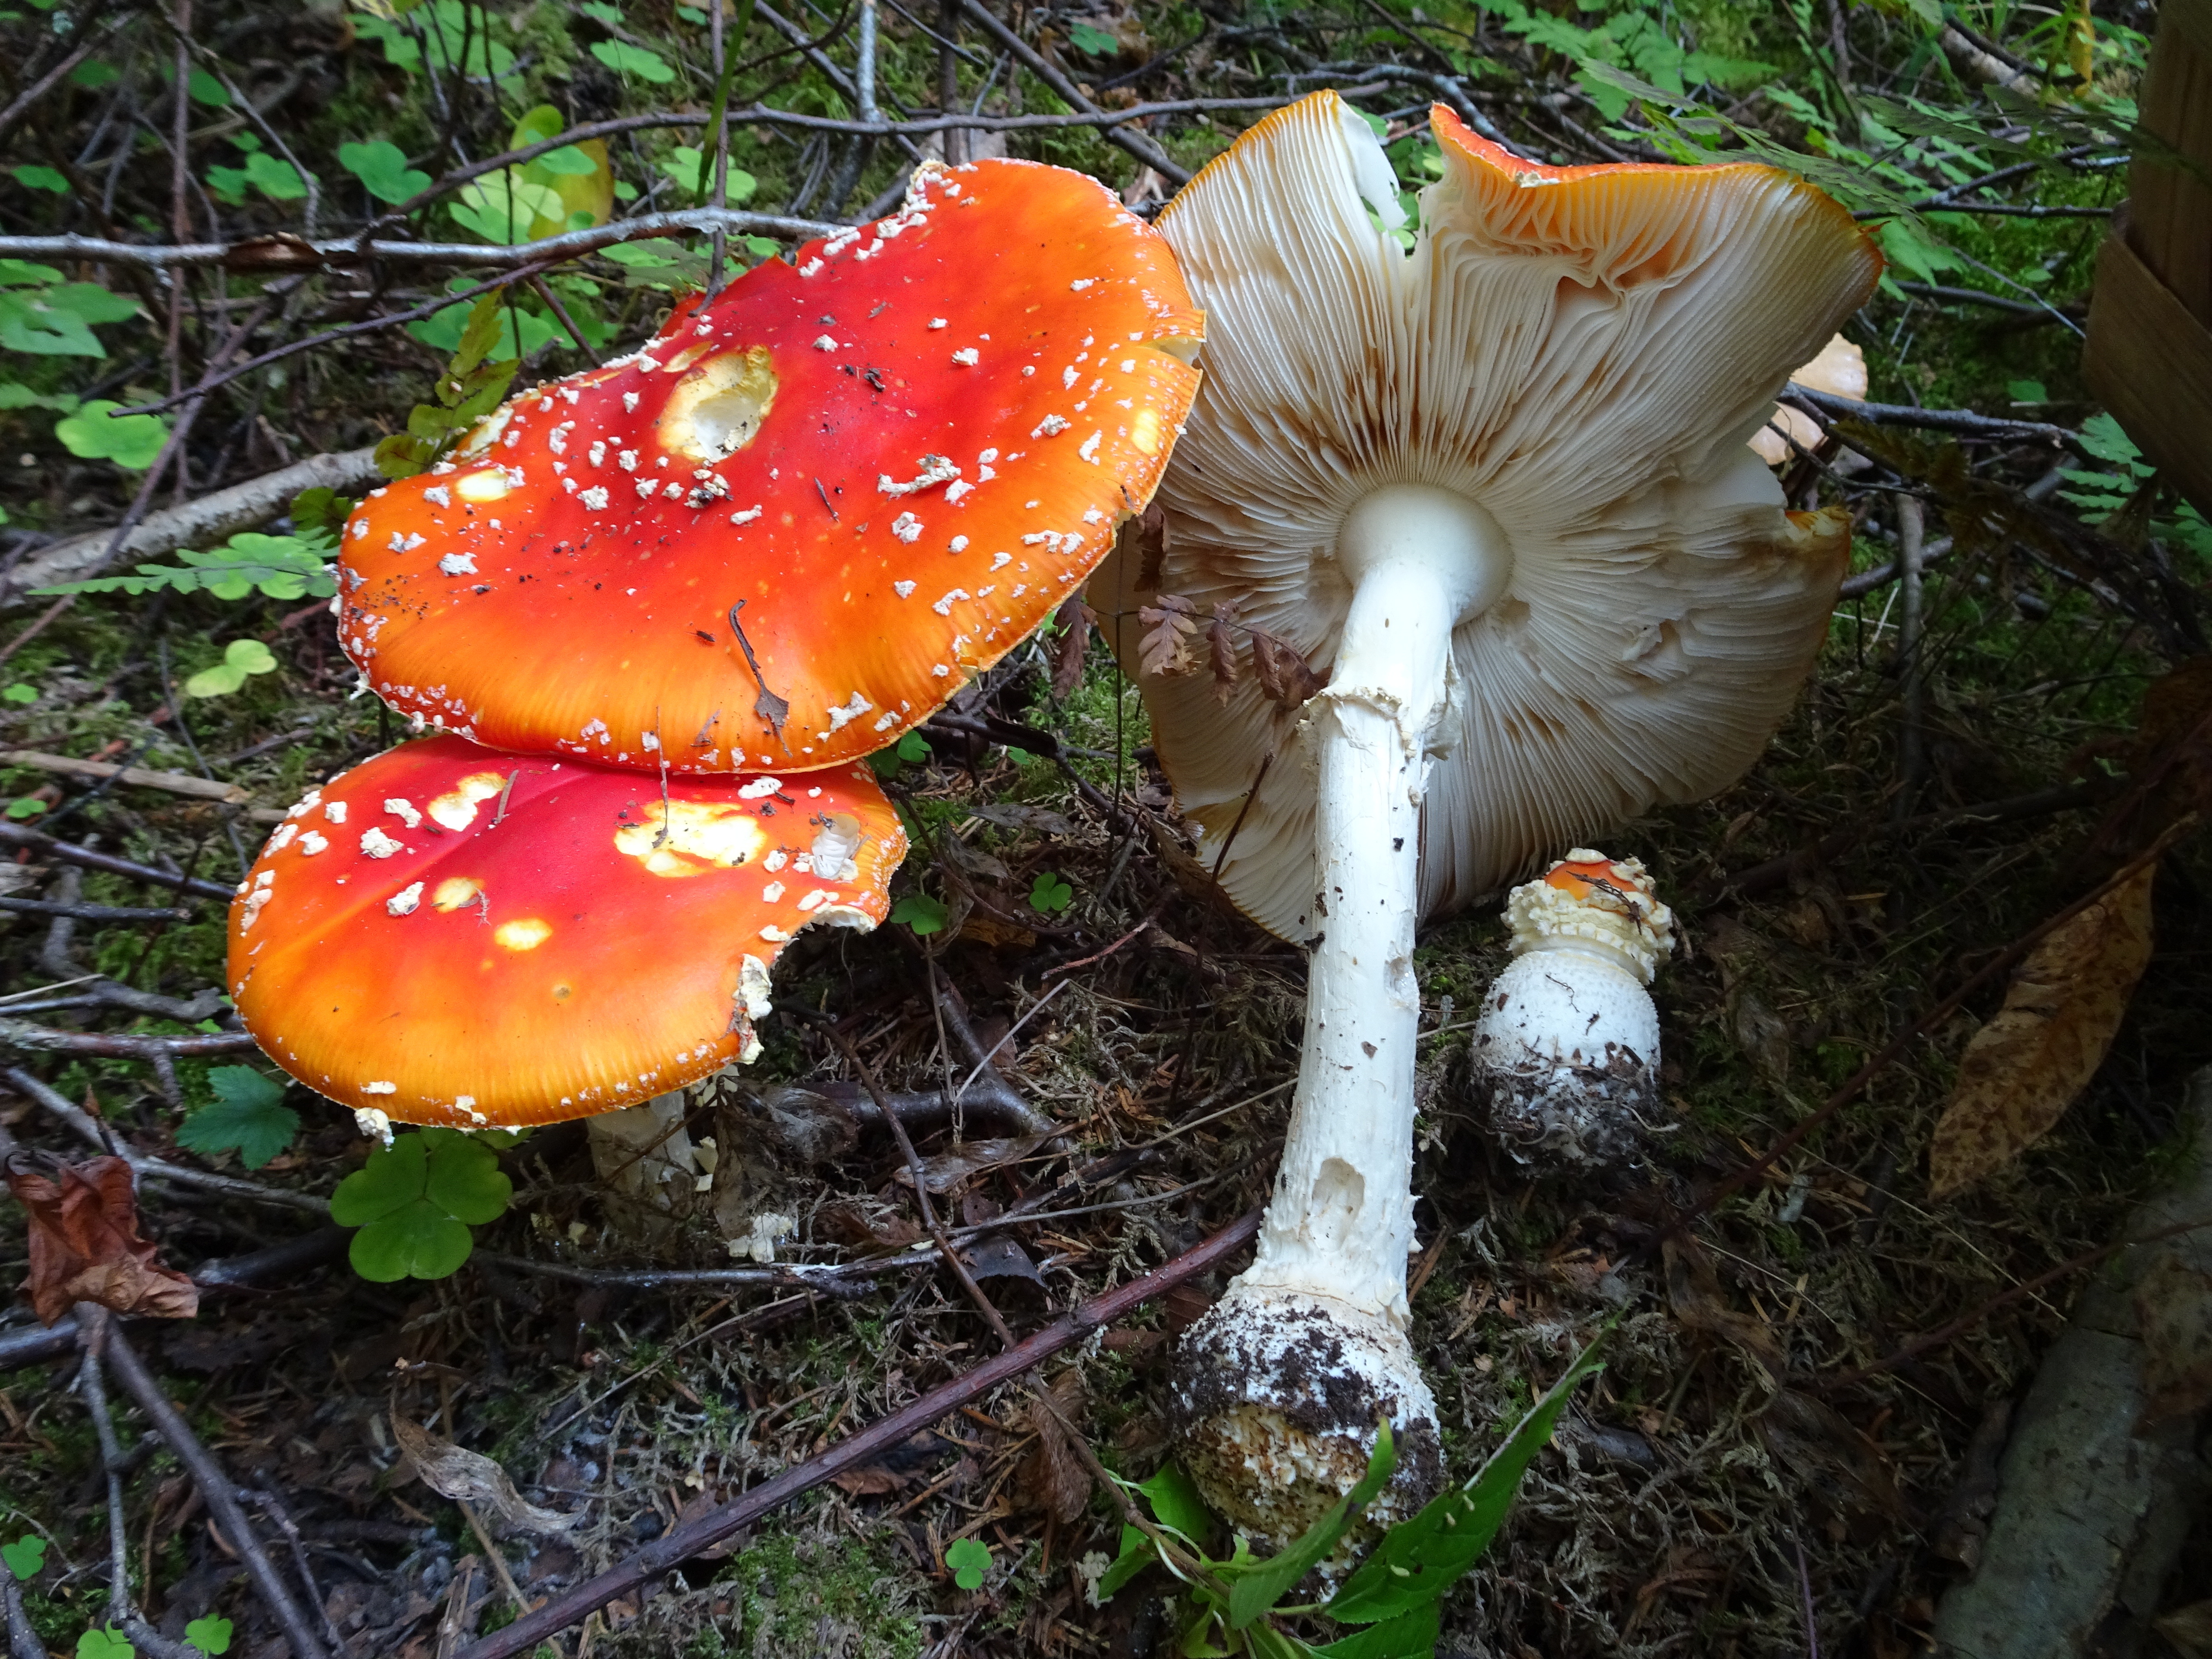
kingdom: Fungi
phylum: Basidiomycota
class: Agaricomycetes
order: Agaricales
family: Amanitaceae
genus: Amanita
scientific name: Amanita muscaria
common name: Fly agaric
